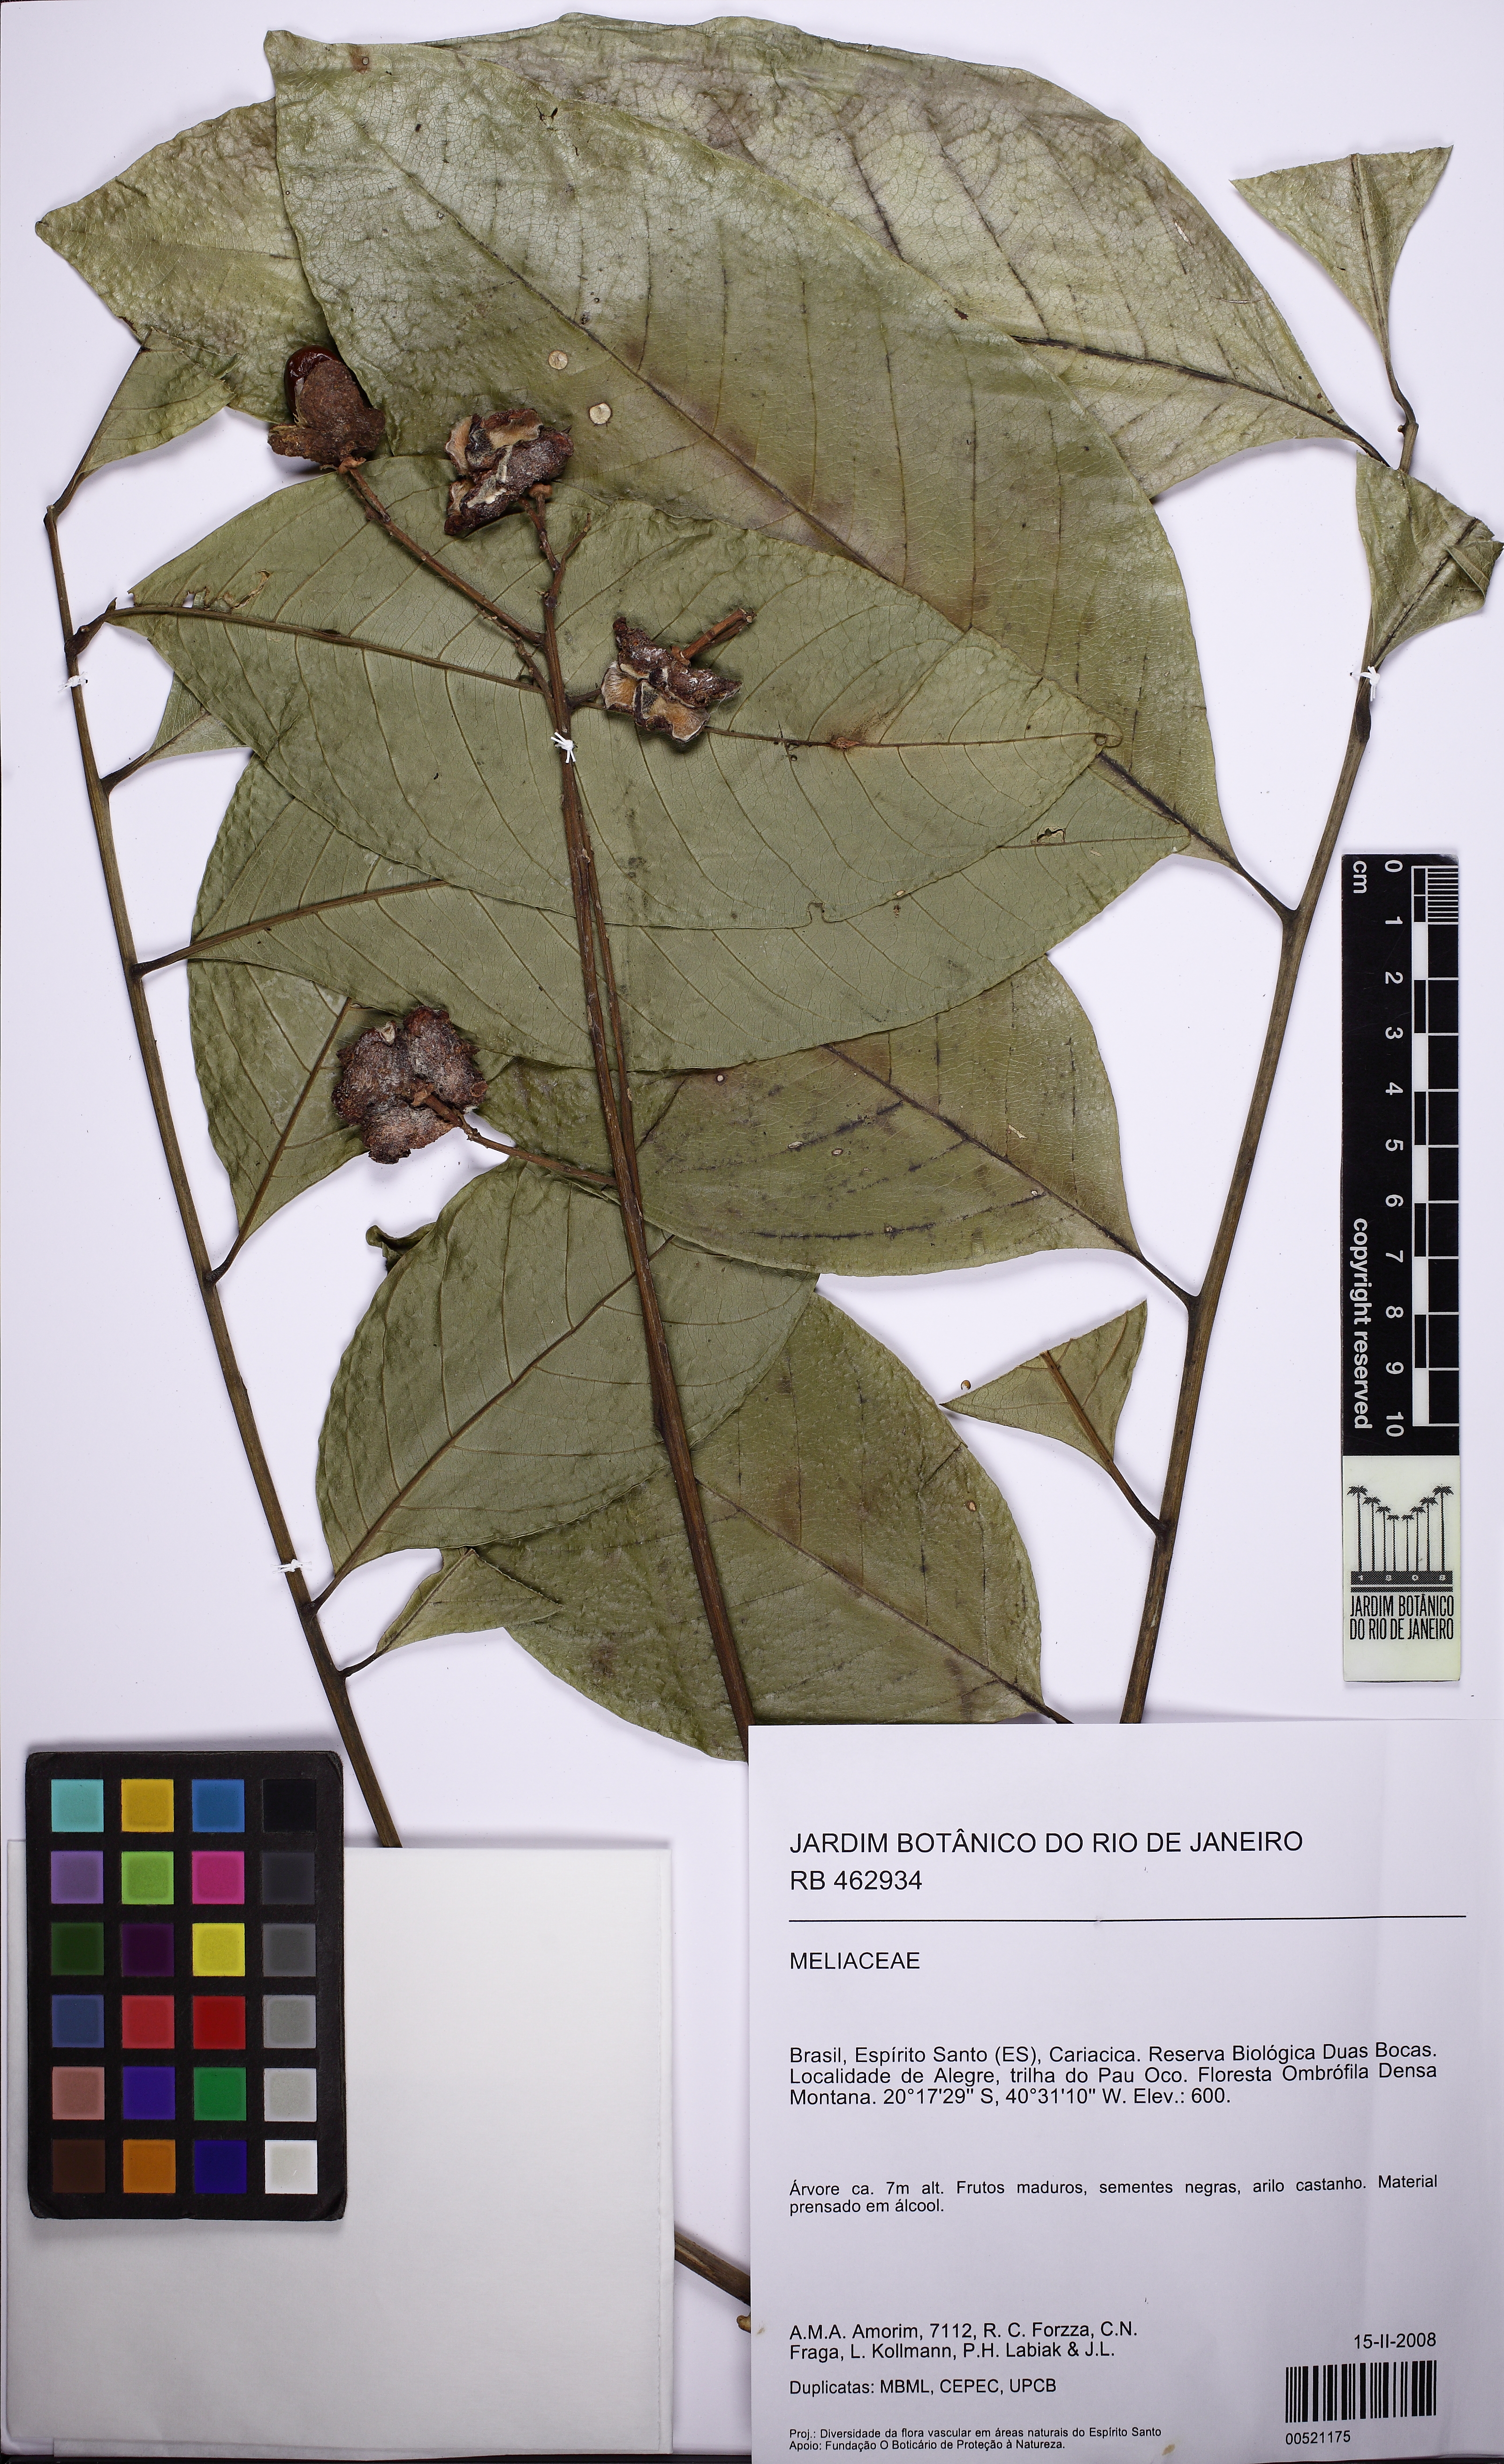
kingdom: Plantae
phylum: Tracheophyta
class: Magnoliopsida
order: Sapindales
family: Sapindaceae
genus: Matayba
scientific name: Matayba grandis
